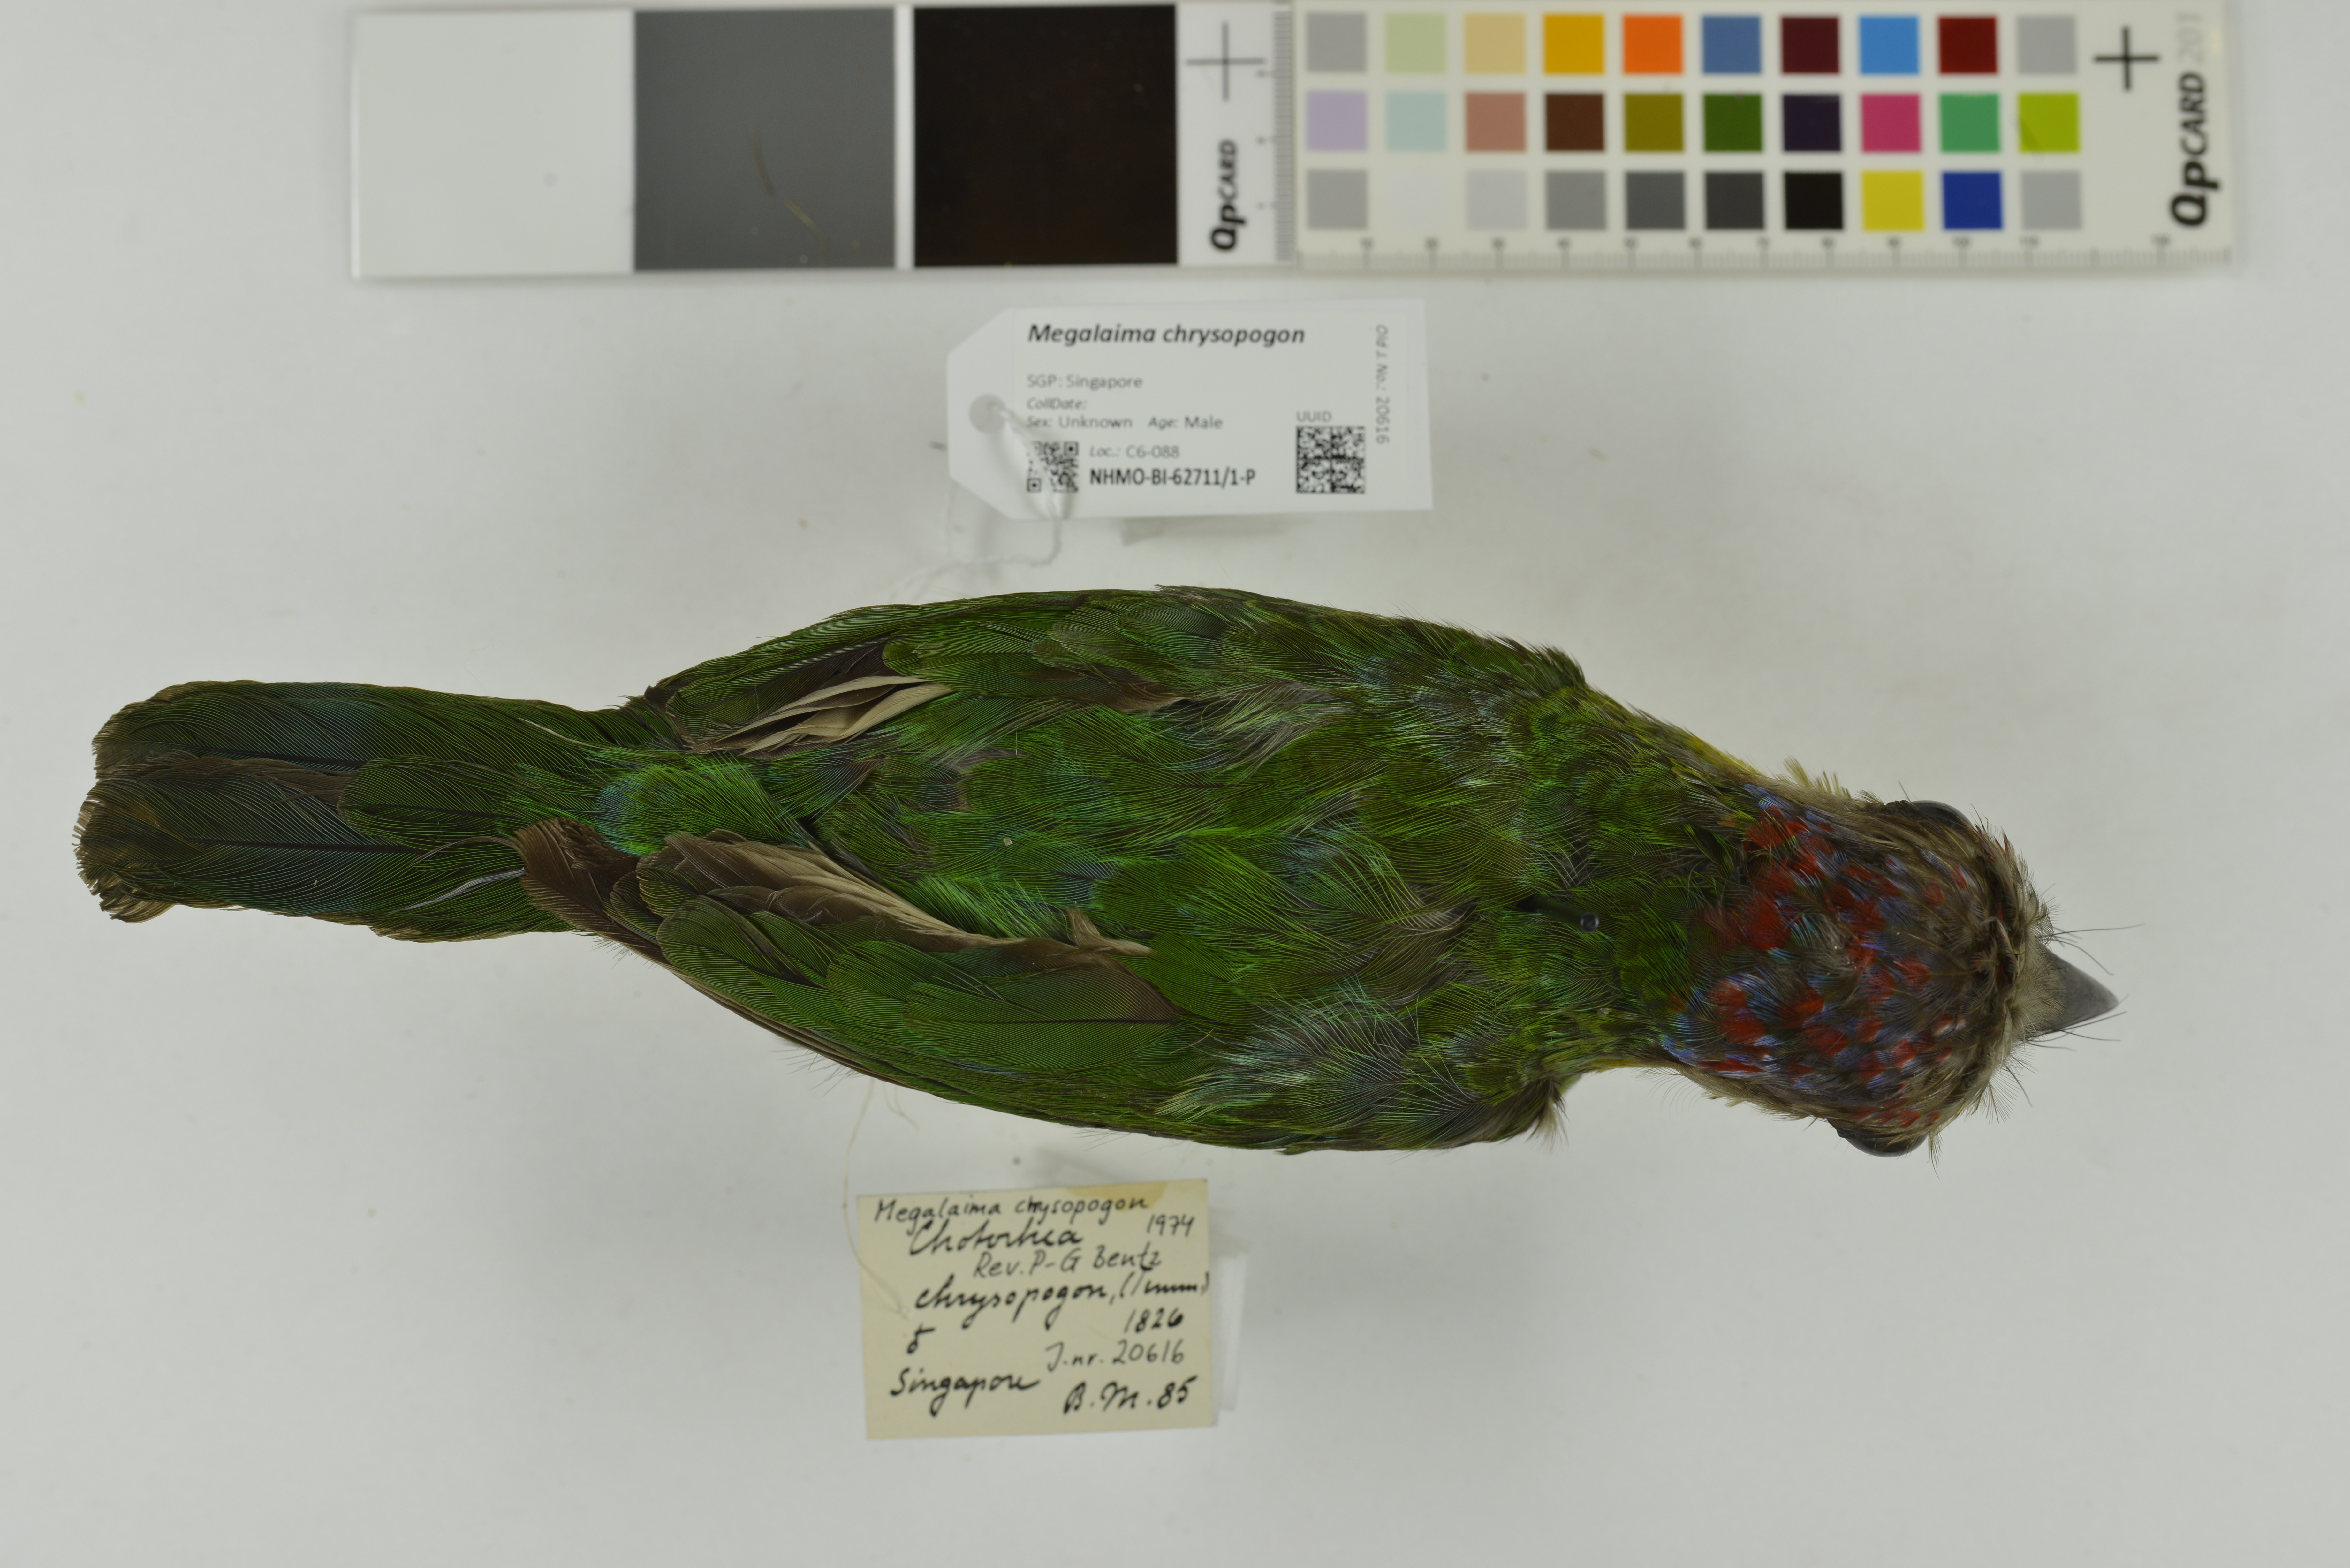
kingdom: Animalia
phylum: Chordata
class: Aves
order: Piciformes
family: Megalaimidae
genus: Psilopogon
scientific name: Psilopogon chrysopogon
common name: Golden-whiskered barbet
